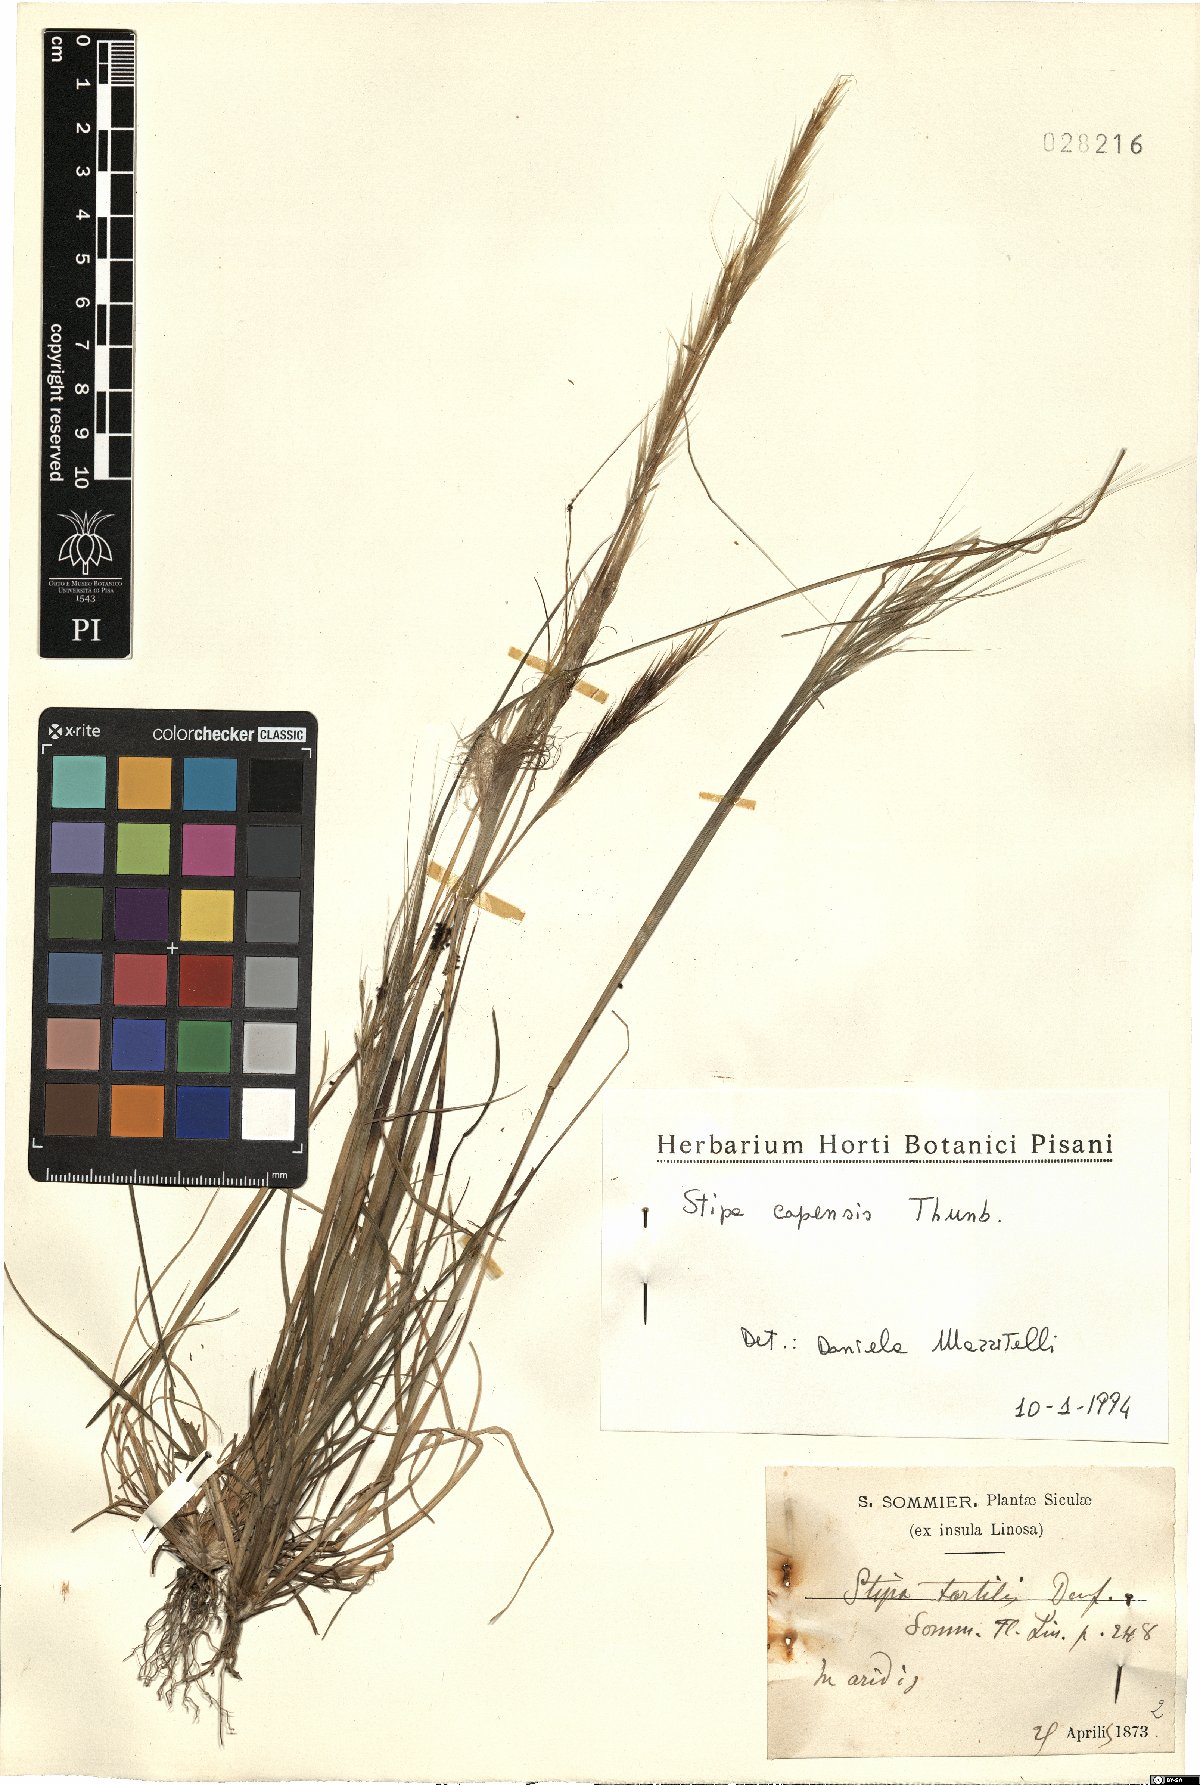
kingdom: Plantae
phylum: Tracheophyta
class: Liliopsida
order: Poales
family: Poaceae
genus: Stipellula
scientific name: Stipellula capensis
